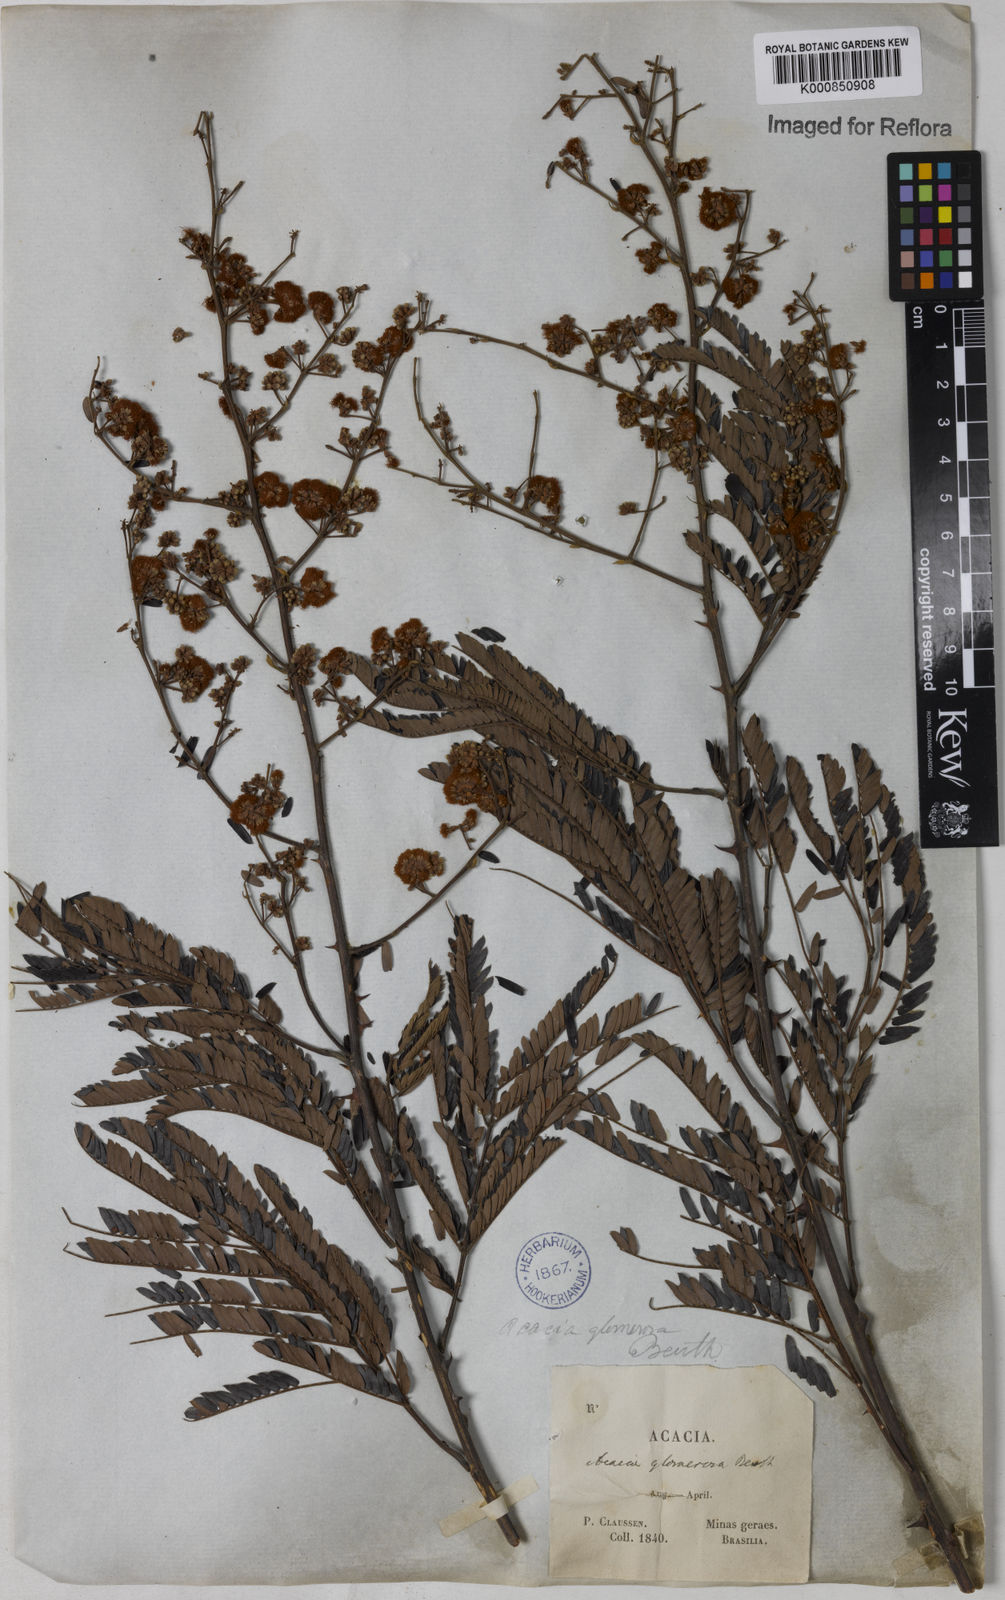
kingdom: Plantae
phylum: Tracheophyta
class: Magnoliopsida
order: Fabales
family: Fabaceae
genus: Senegalia
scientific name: Senegalia polyphylla
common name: White-tamarind
